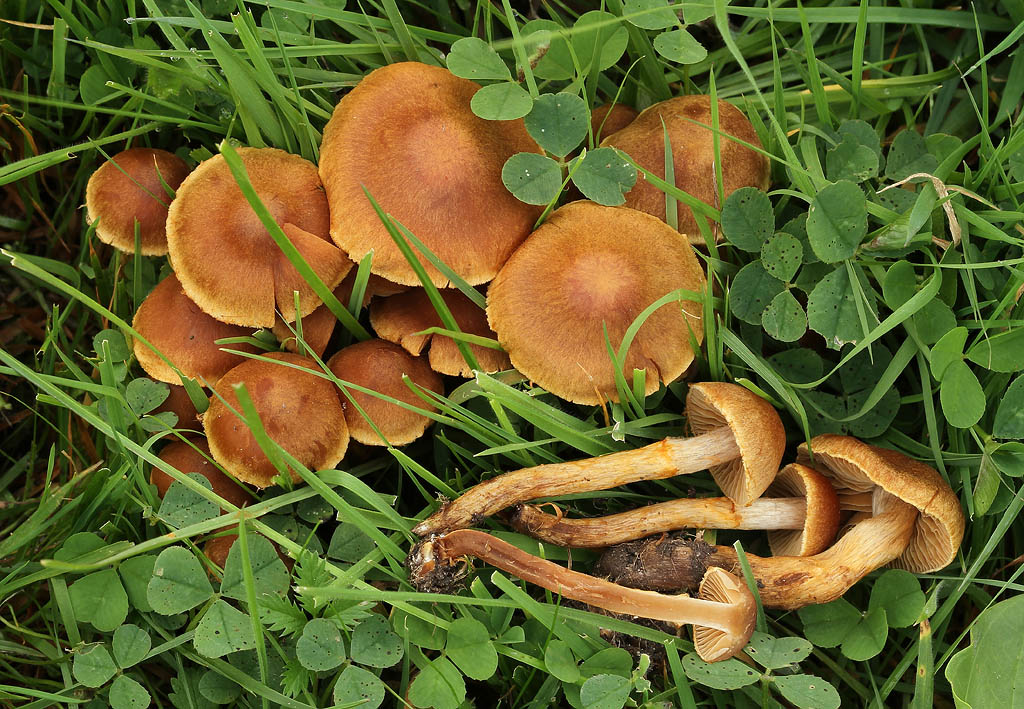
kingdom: Fungi
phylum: Basidiomycota
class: Agaricomycetes
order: Agaricales
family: Cortinariaceae
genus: Cortinarius
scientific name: Cortinarius saniosus
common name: gultrævlet slørhat
